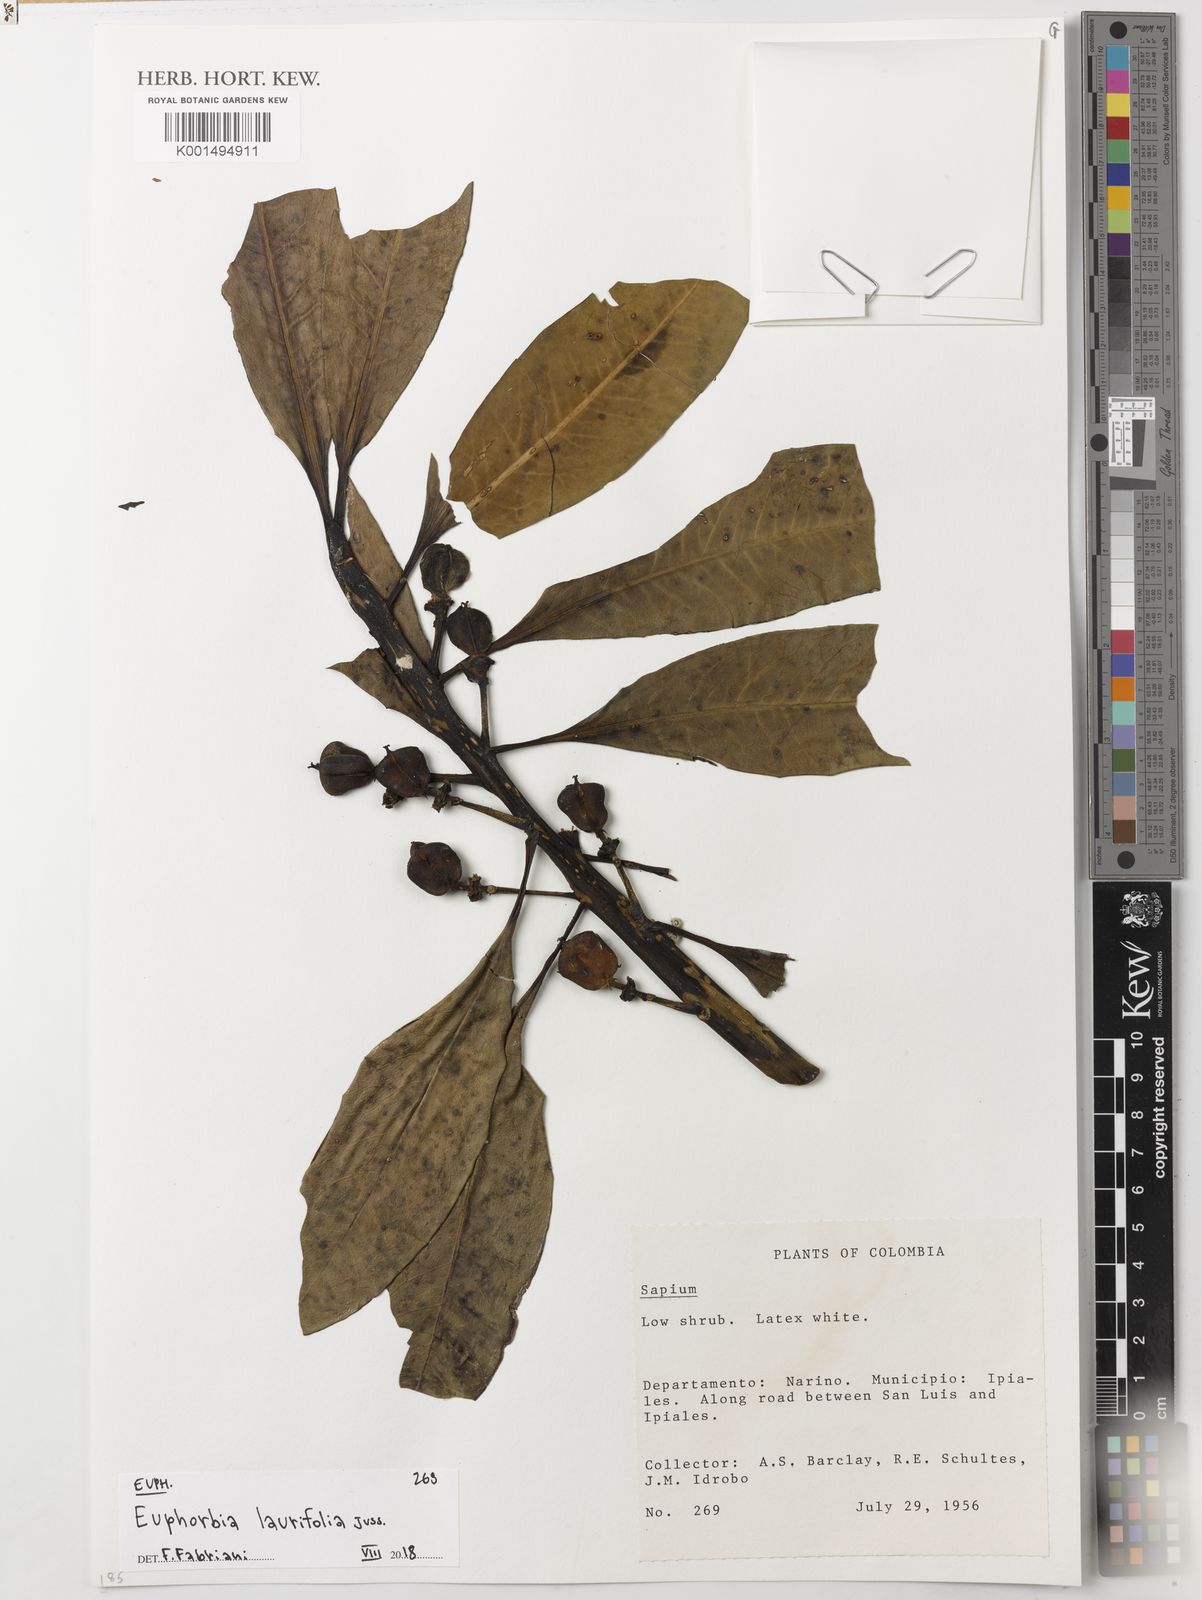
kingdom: Plantae
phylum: Tracheophyta
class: Magnoliopsida
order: Malpighiales
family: Euphorbiaceae
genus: Euphorbia
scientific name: Euphorbia laurifolia
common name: Lechero
